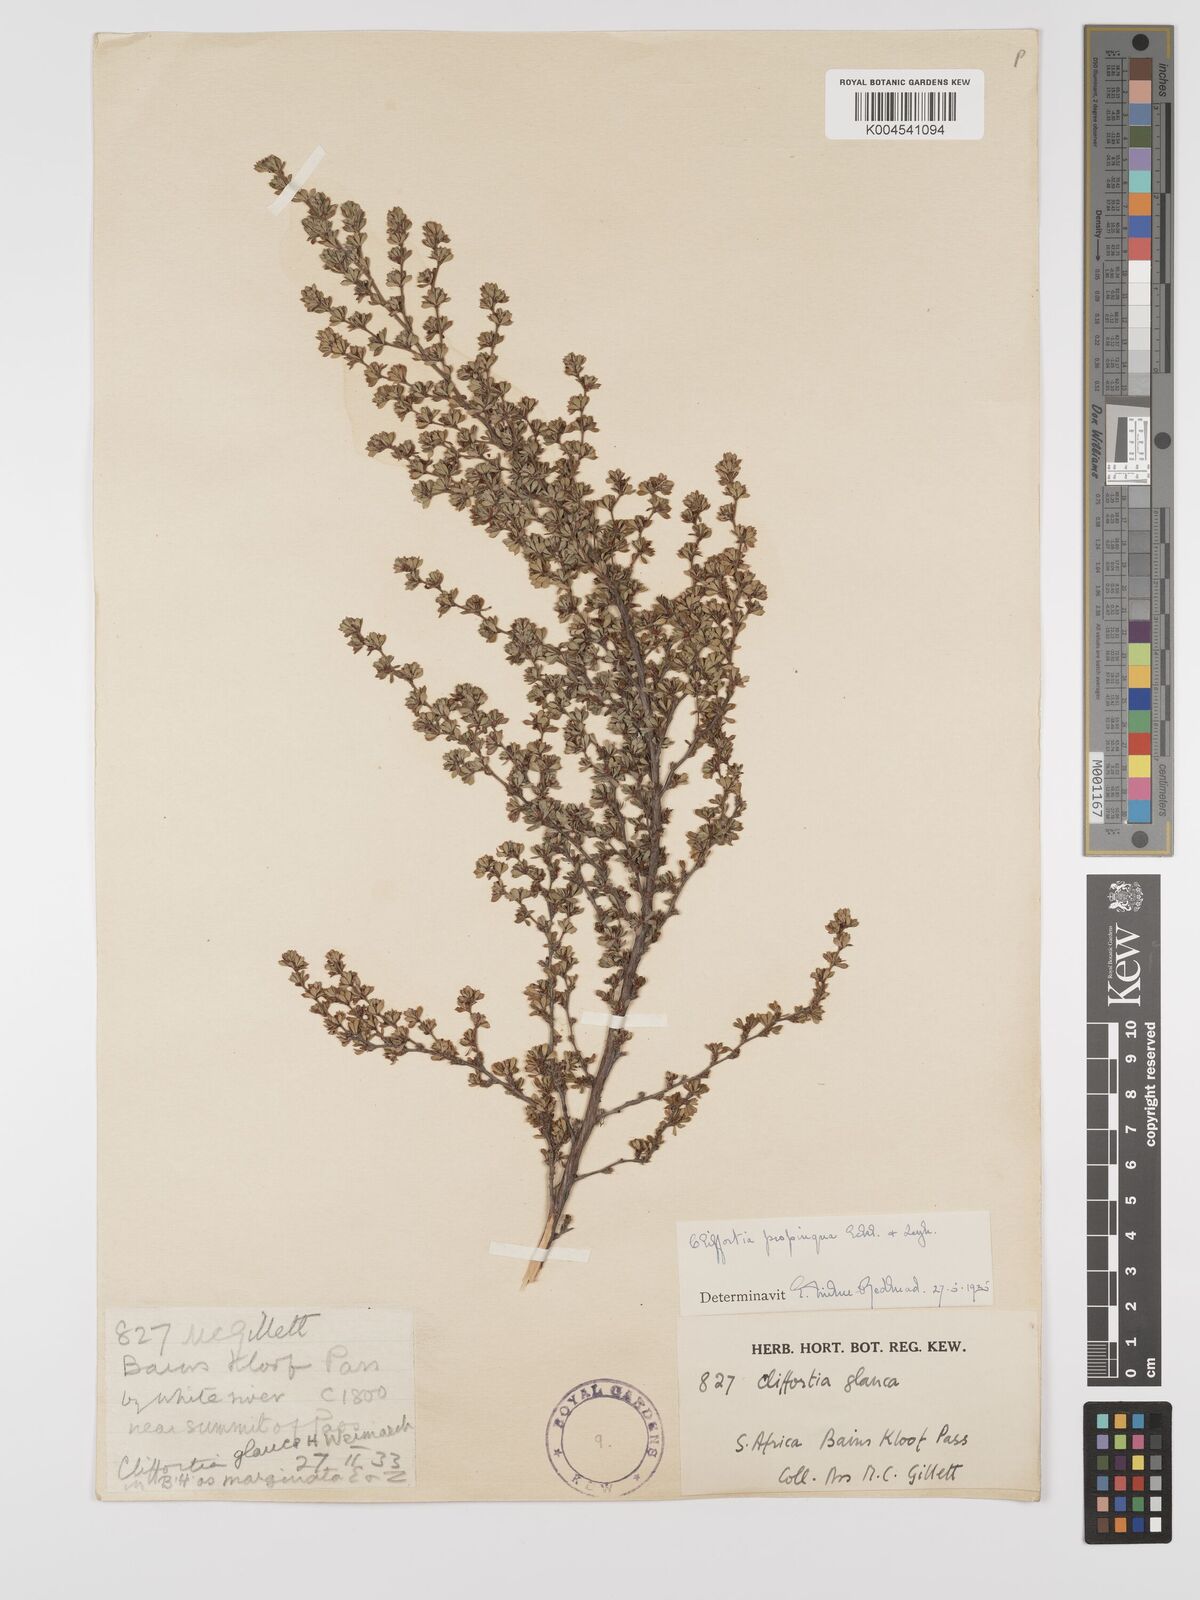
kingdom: Plantae
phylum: Tracheophyta
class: Magnoliopsida
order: Rosales
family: Rosaceae
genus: Cliffortia
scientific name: Cliffortia propinqua
